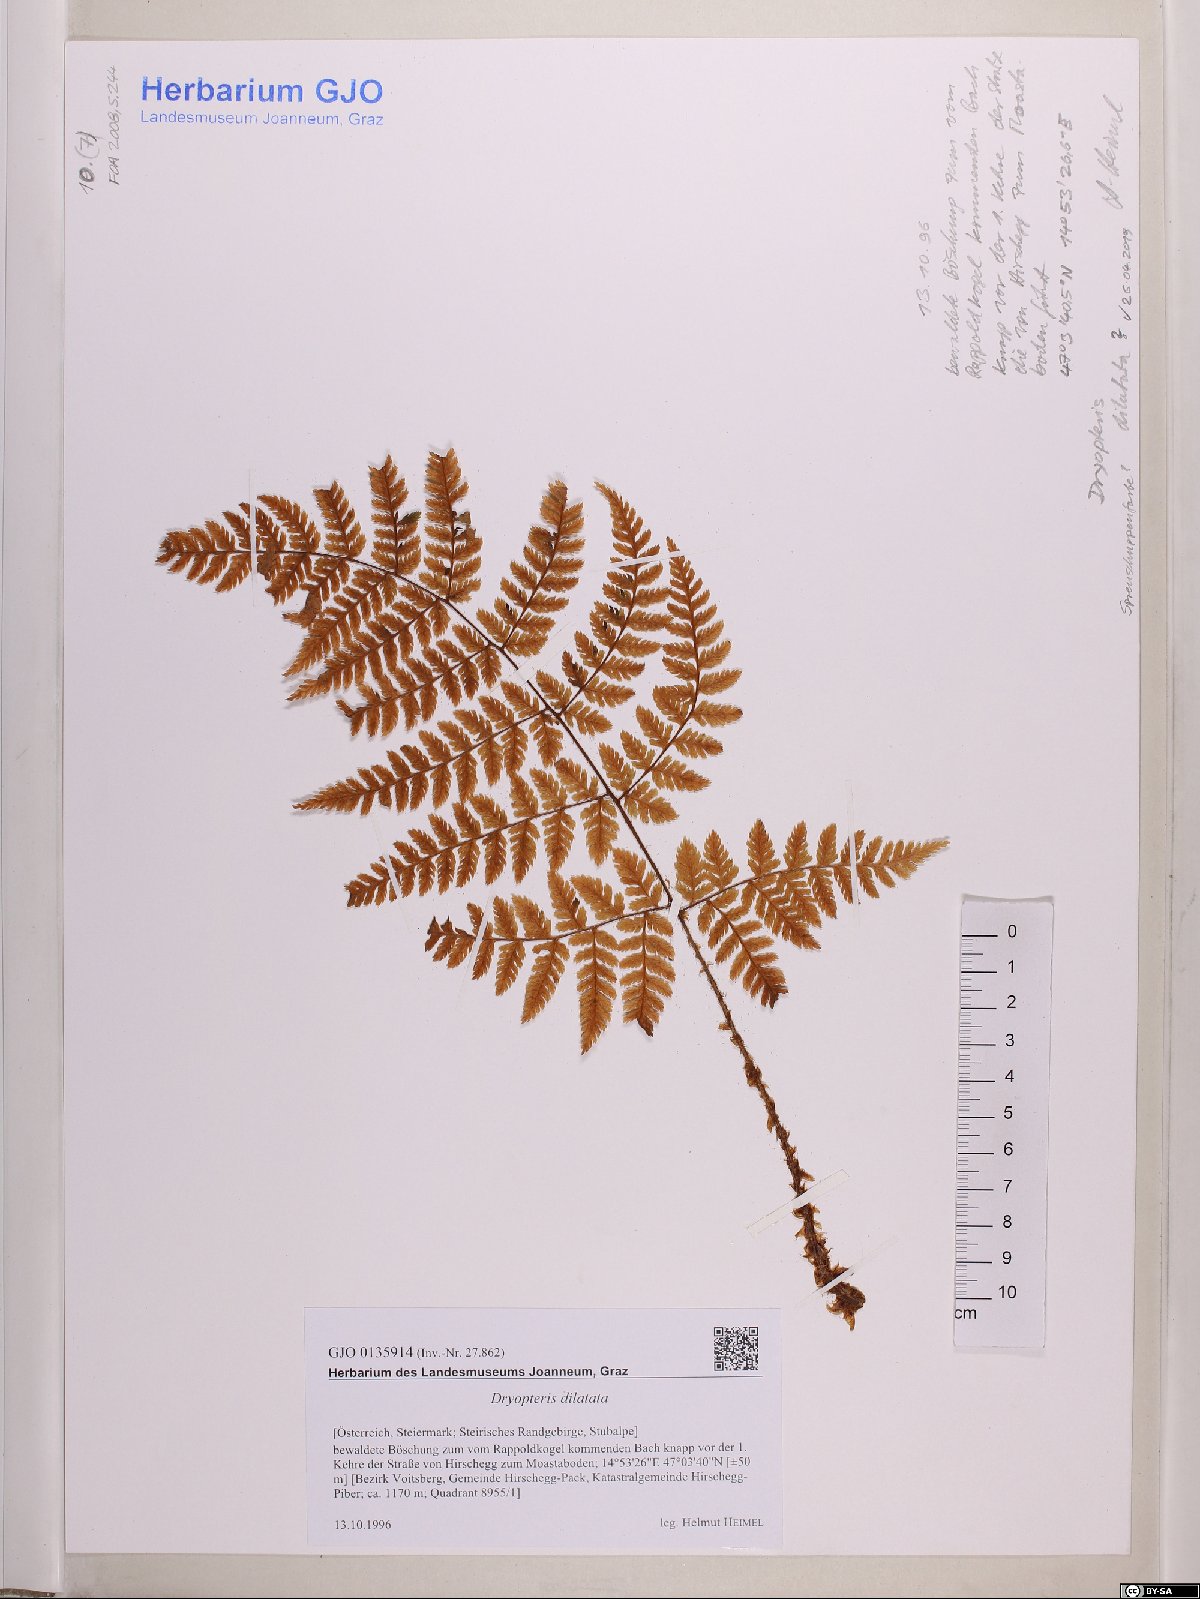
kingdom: Plantae
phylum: Tracheophyta
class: Polypodiopsida
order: Polypodiales
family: Dryopteridaceae
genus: Dryopteris
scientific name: Dryopteris dilatata
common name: Broad buckler-fern
